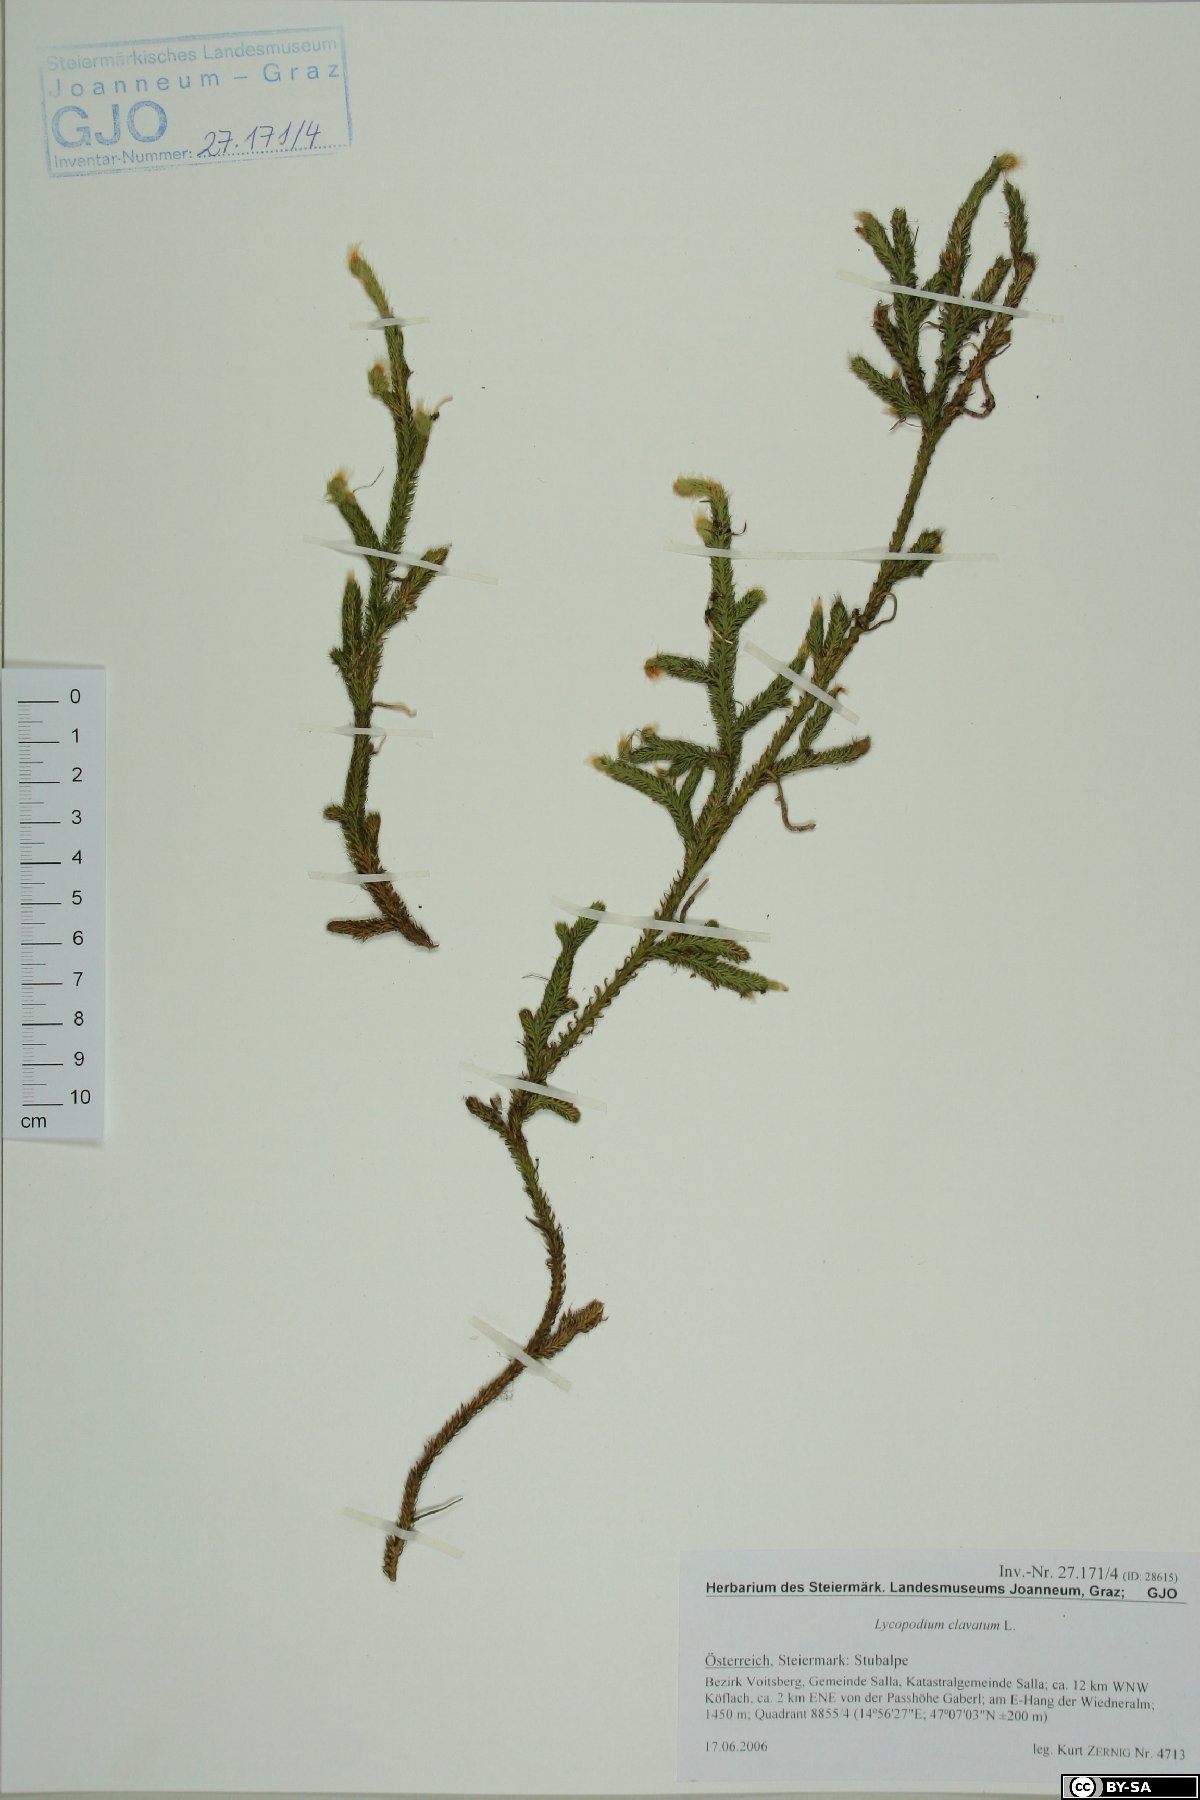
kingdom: Plantae
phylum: Tracheophyta
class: Lycopodiopsida
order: Lycopodiales
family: Lycopodiaceae
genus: Lycopodium
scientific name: Lycopodium clavatum
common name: Stag's-horn clubmoss
